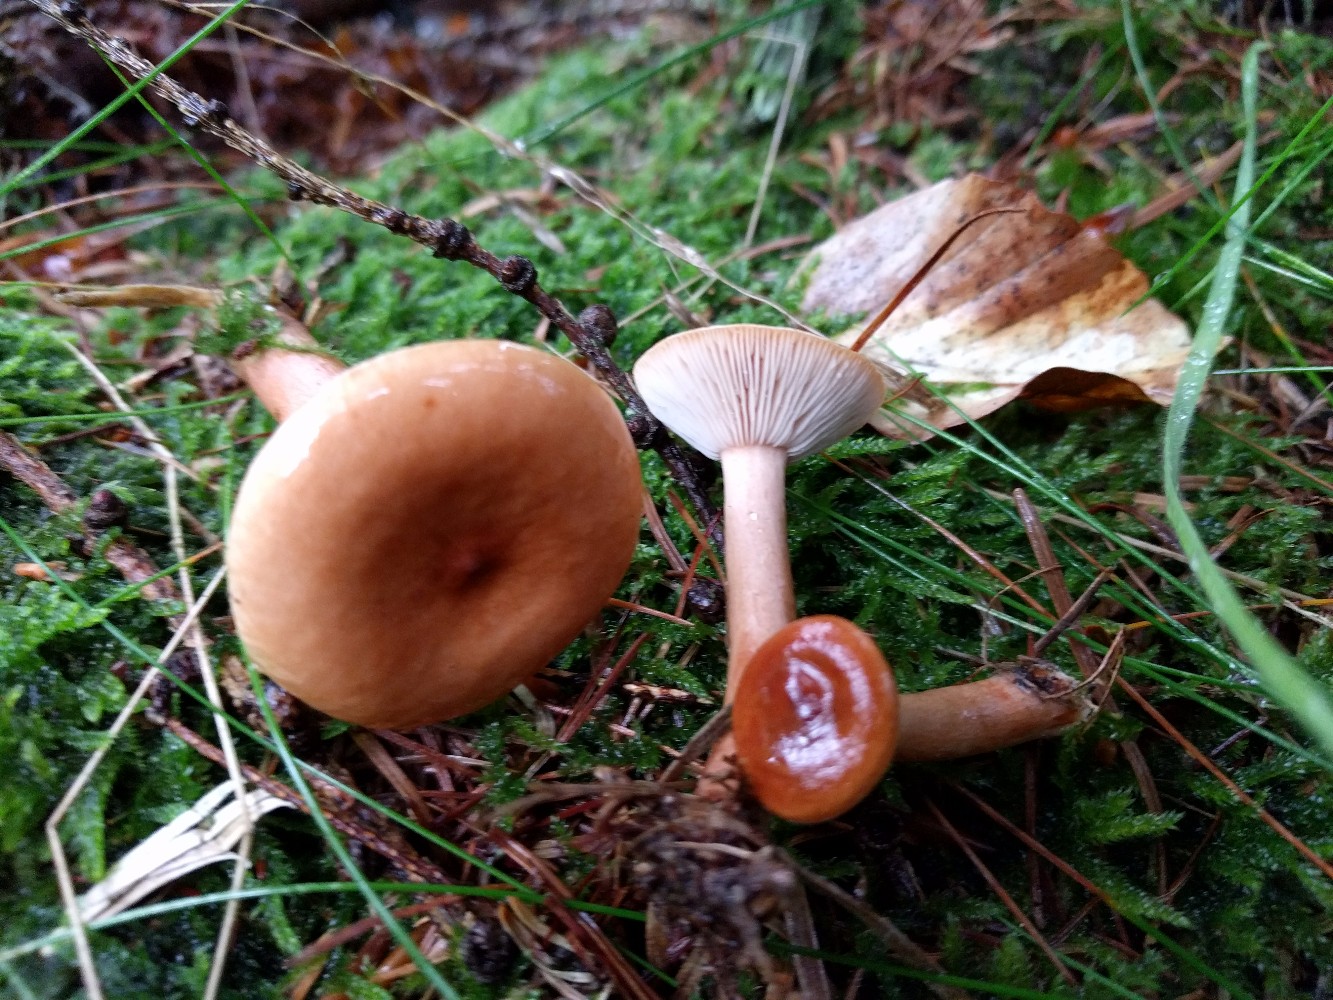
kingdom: Fungi
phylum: Basidiomycota
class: Agaricomycetes
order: Russulales
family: Russulaceae
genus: Lactarius
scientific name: Lactarius tabidus
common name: rynket mælkehat
